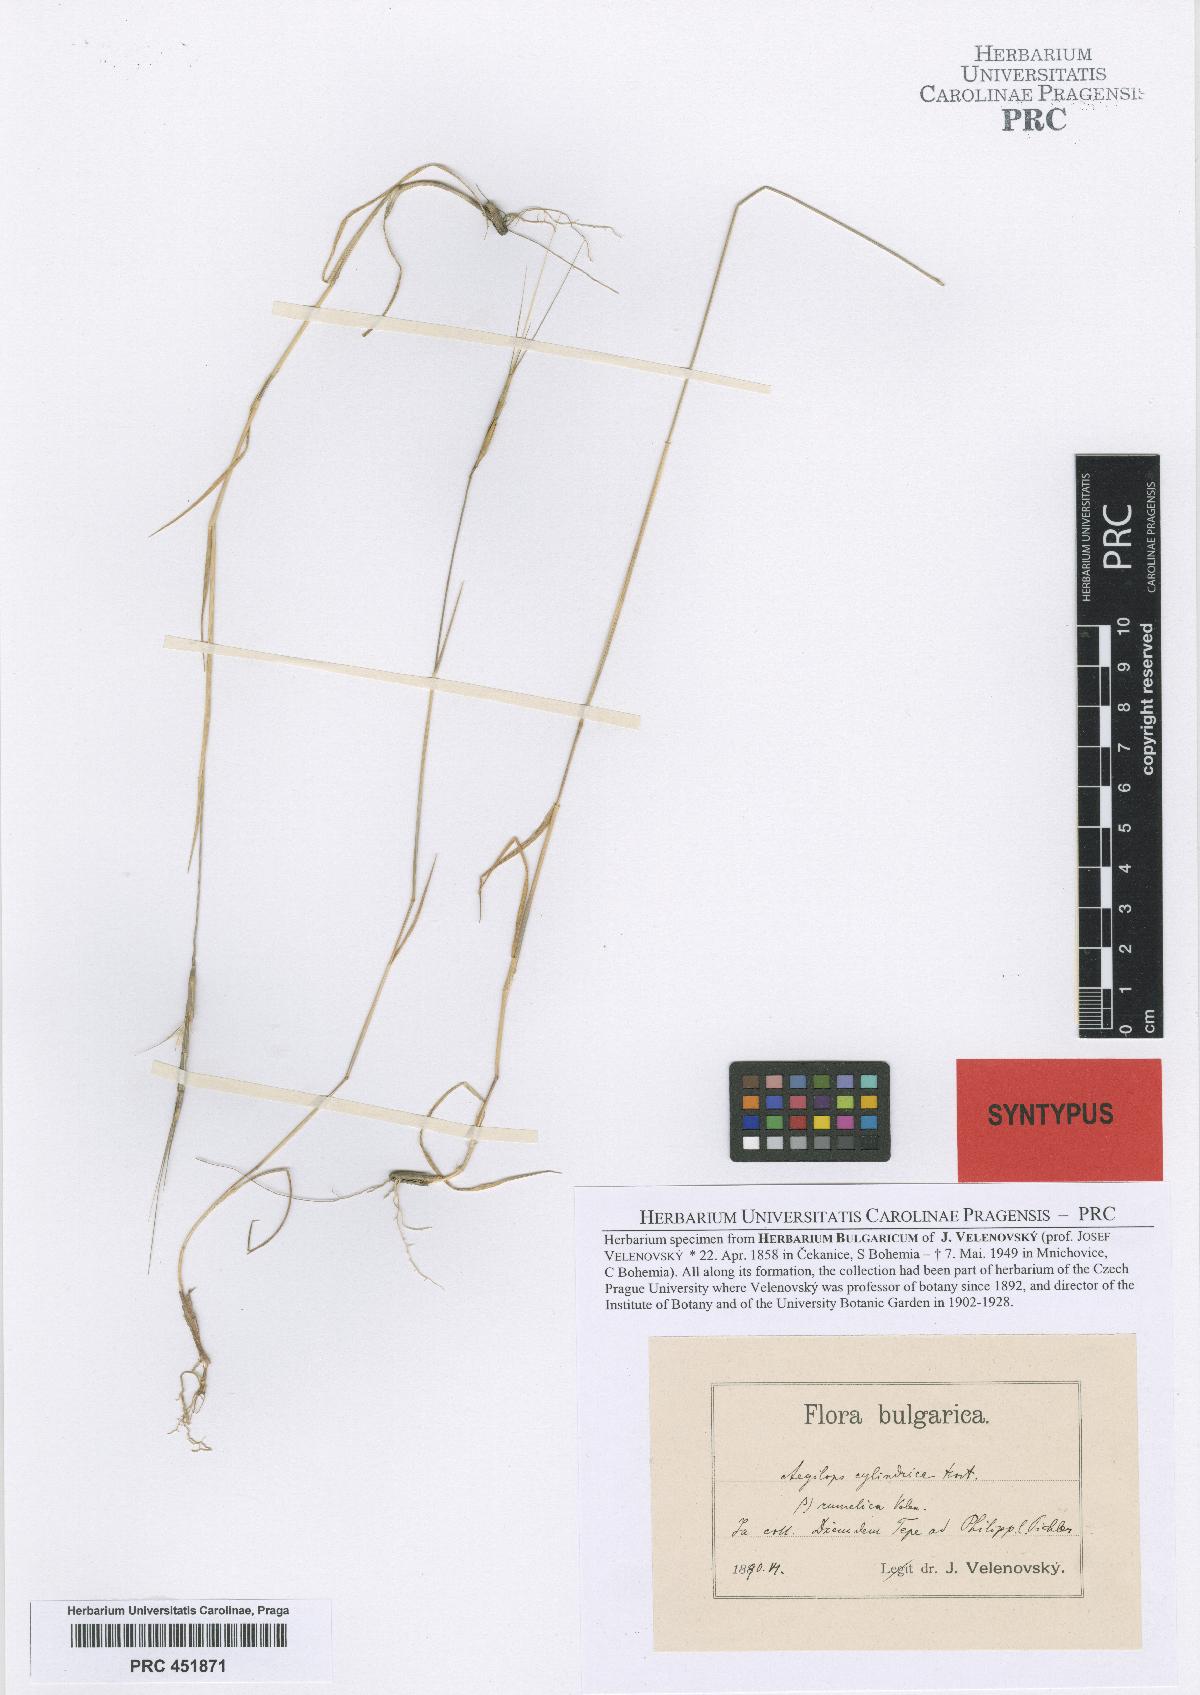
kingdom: Plantae
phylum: Tracheophyta
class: Liliopsida
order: Poales
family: Poaceae
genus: Aegilops
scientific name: Aegilops cylindrica
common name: Jointed goatgrass
